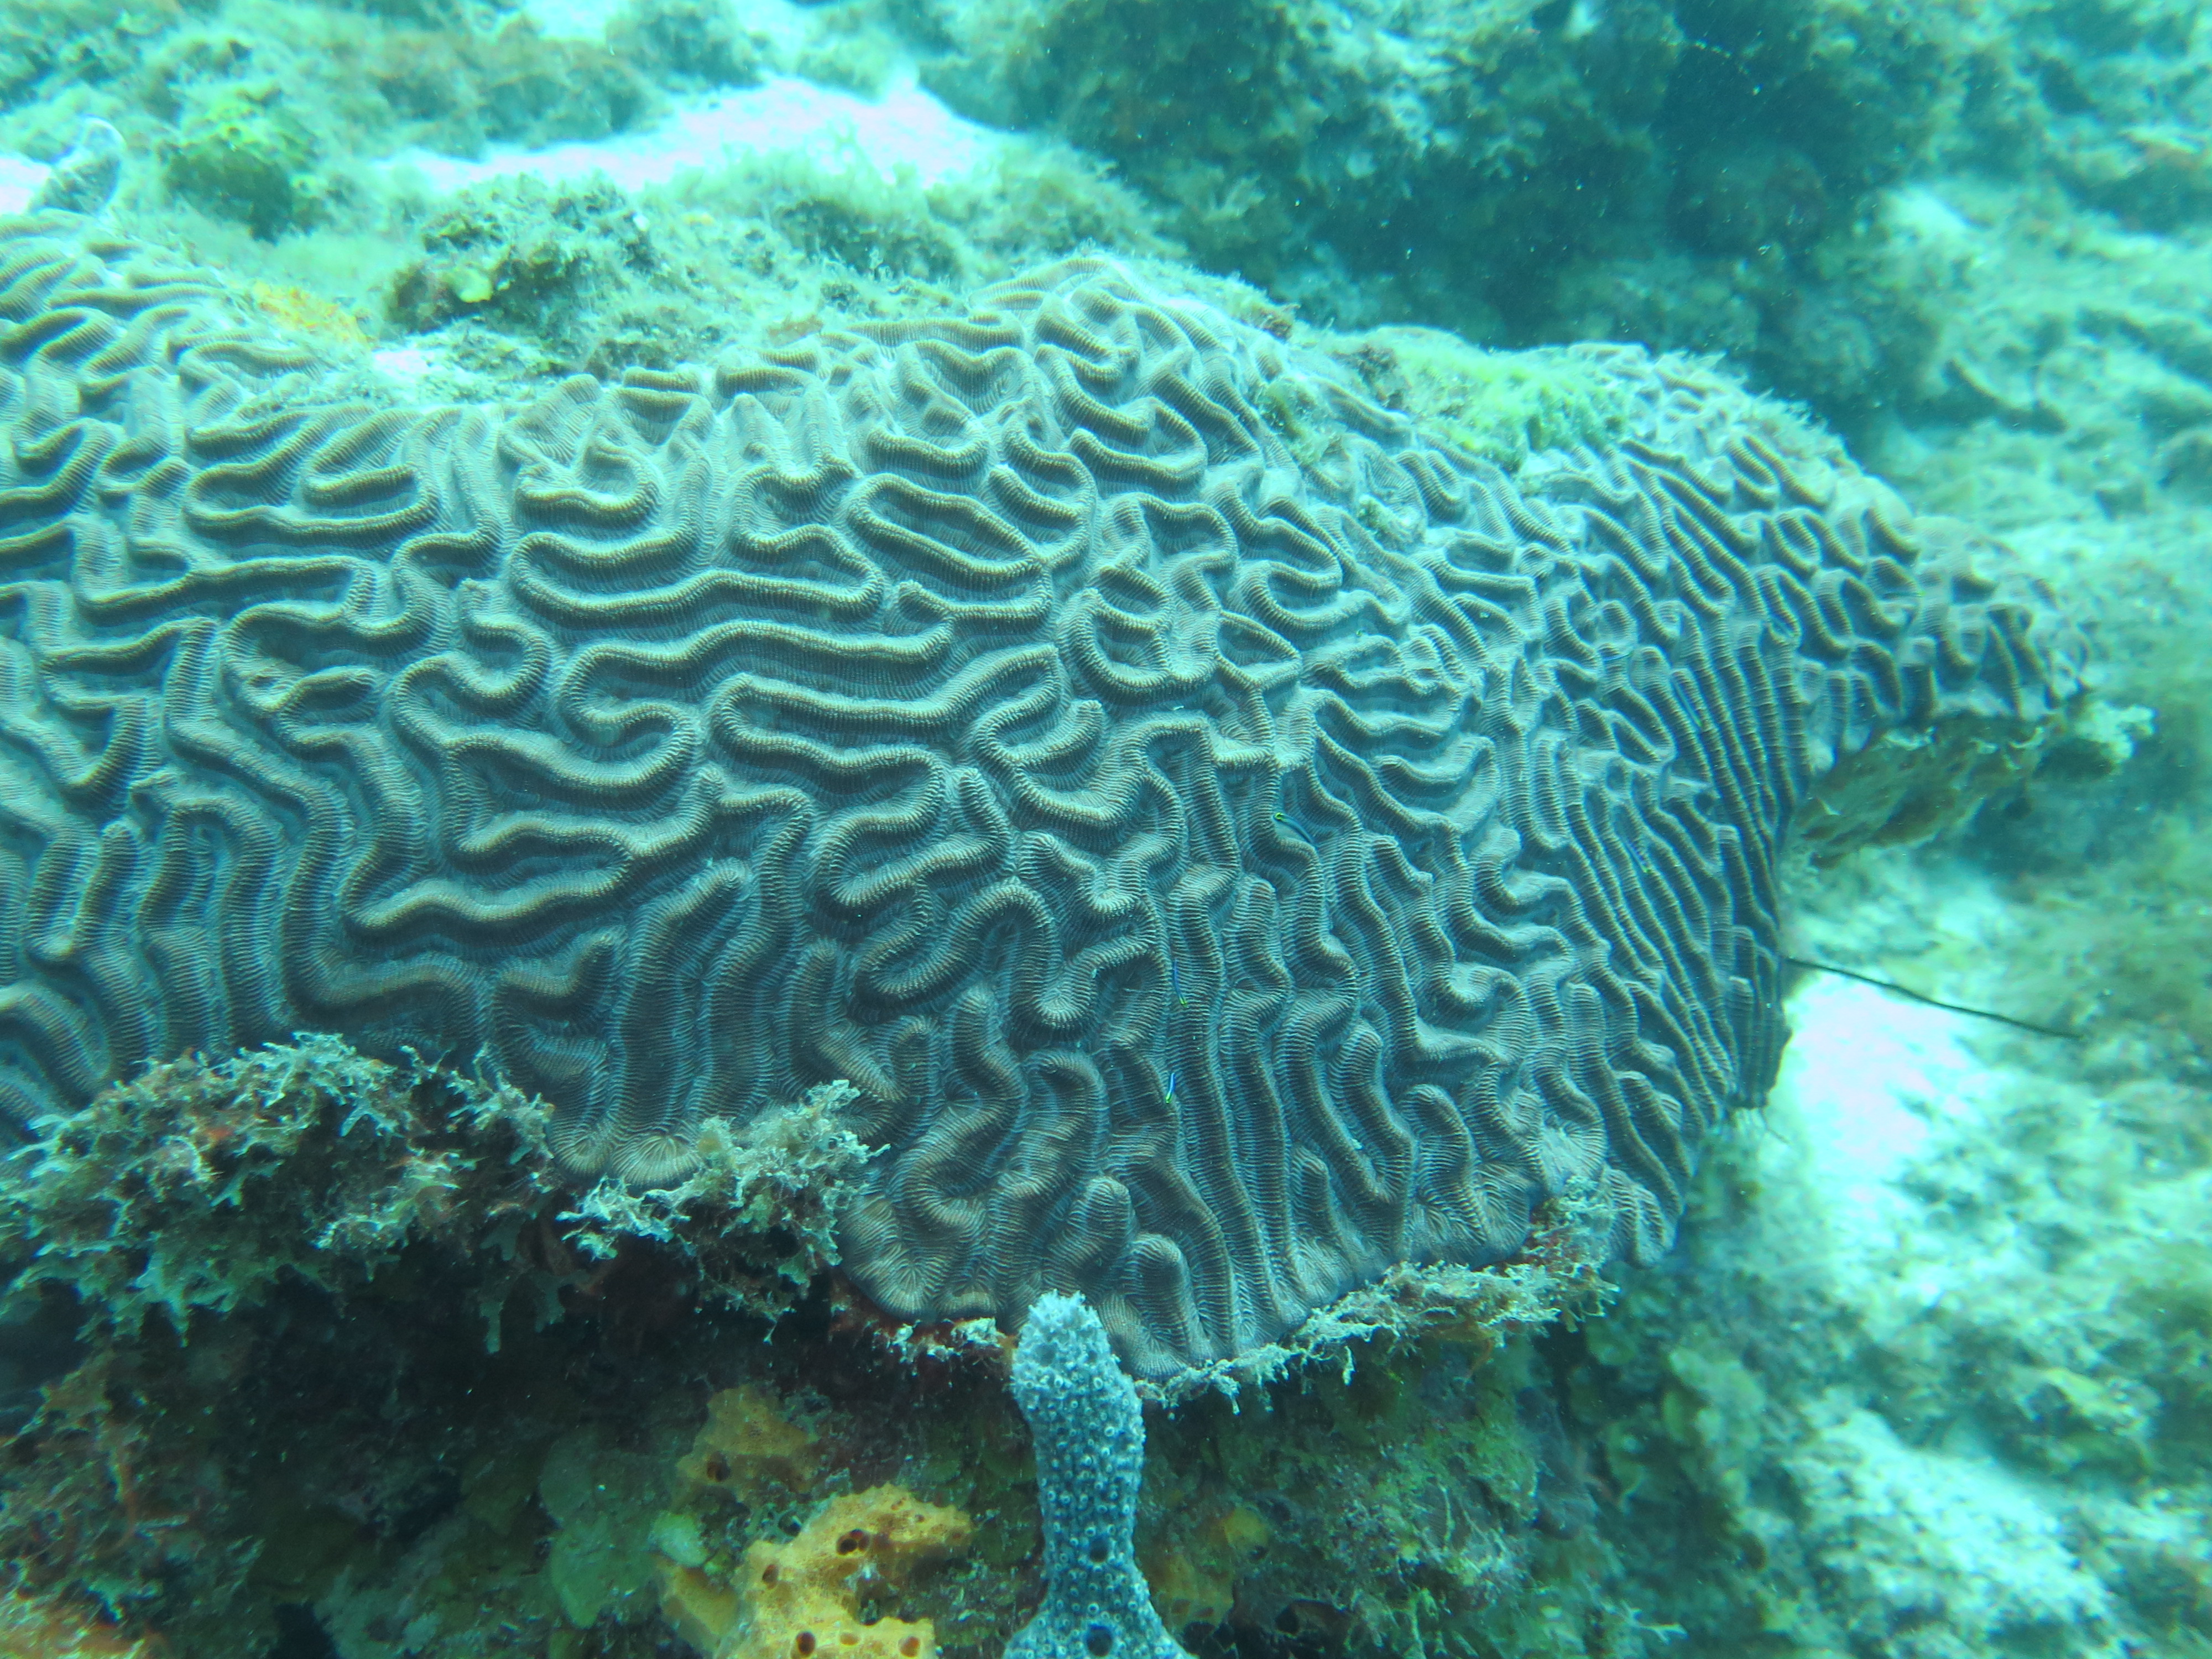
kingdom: Animalia
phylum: Cnidaria
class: Anthozoa
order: Scleractinia
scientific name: Scleractinia
